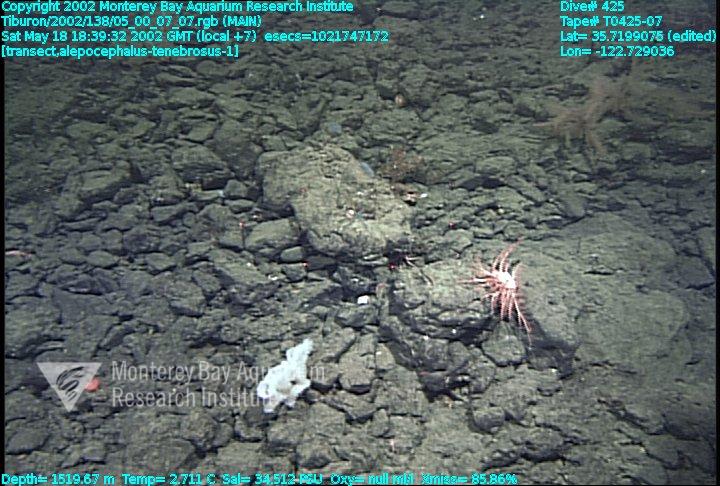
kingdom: Animalia
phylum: Porifera
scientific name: Porifera
